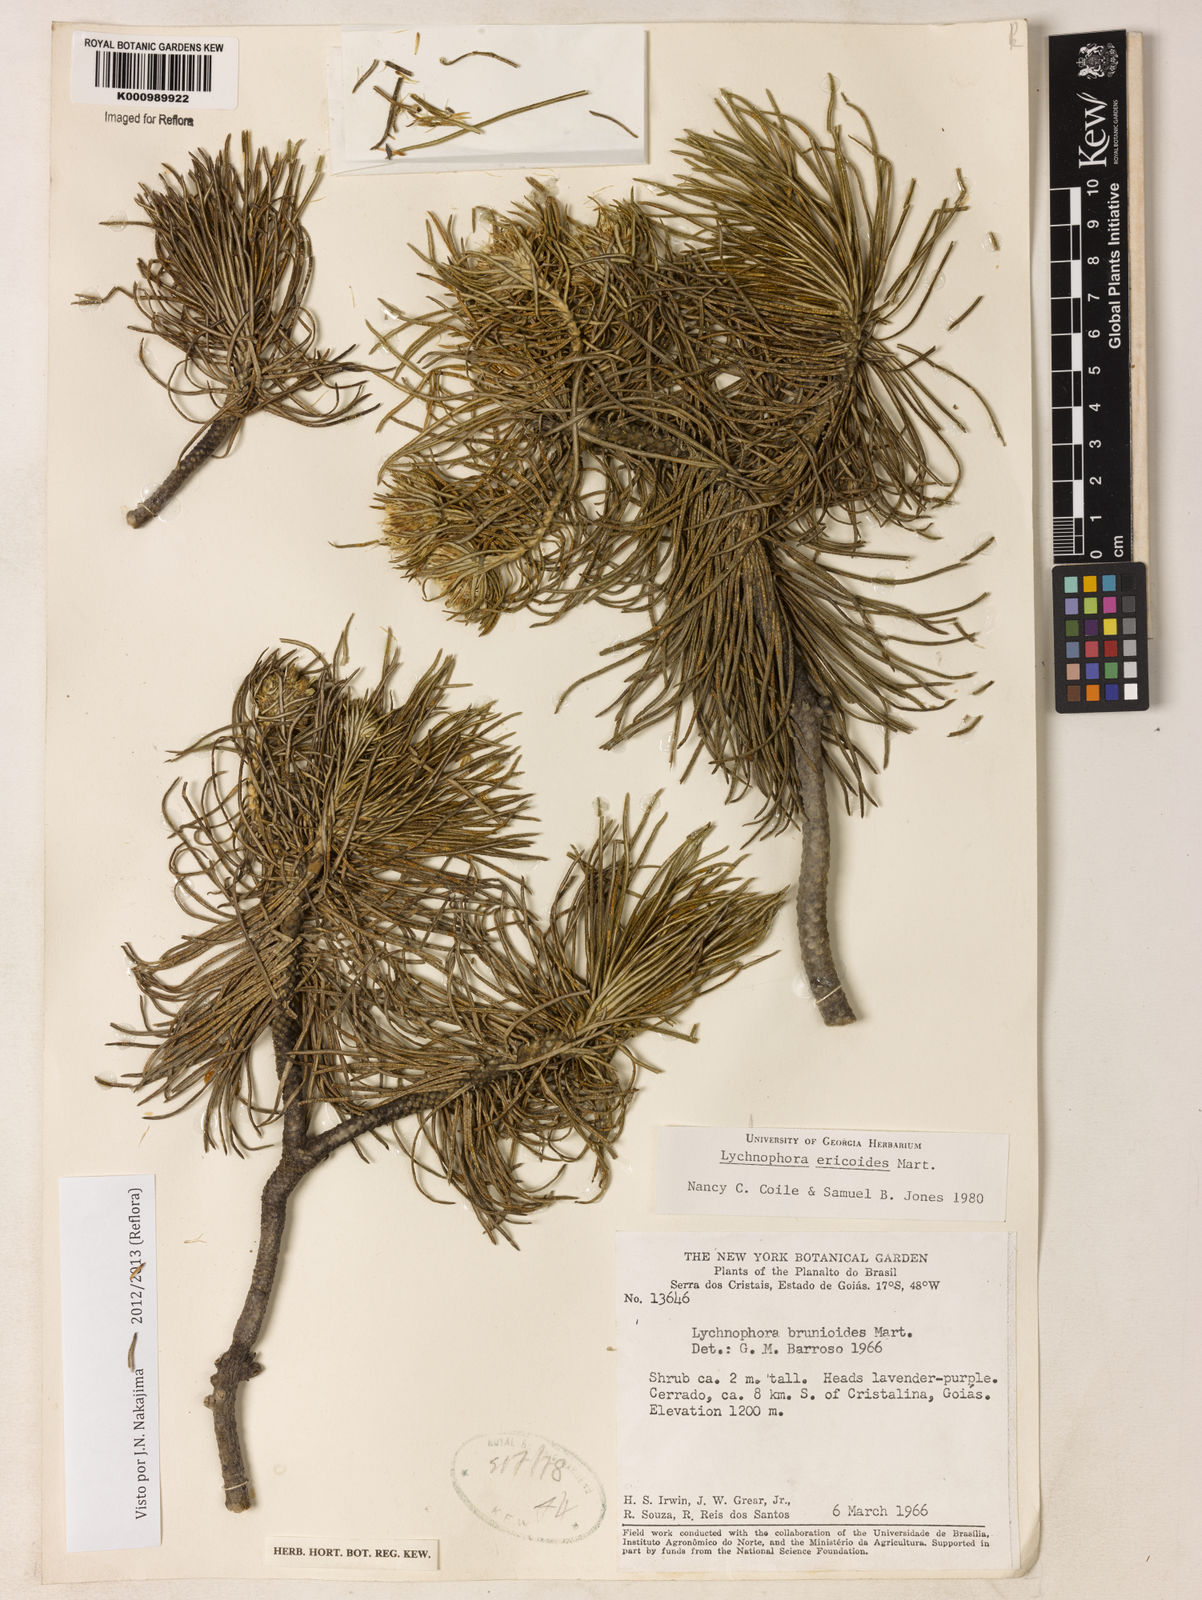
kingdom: Plantae
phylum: Tracheophyta
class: Magnoliopsida
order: Asterales
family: Asteraceae
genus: Lychnophora
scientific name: Lychnophora ericoides
